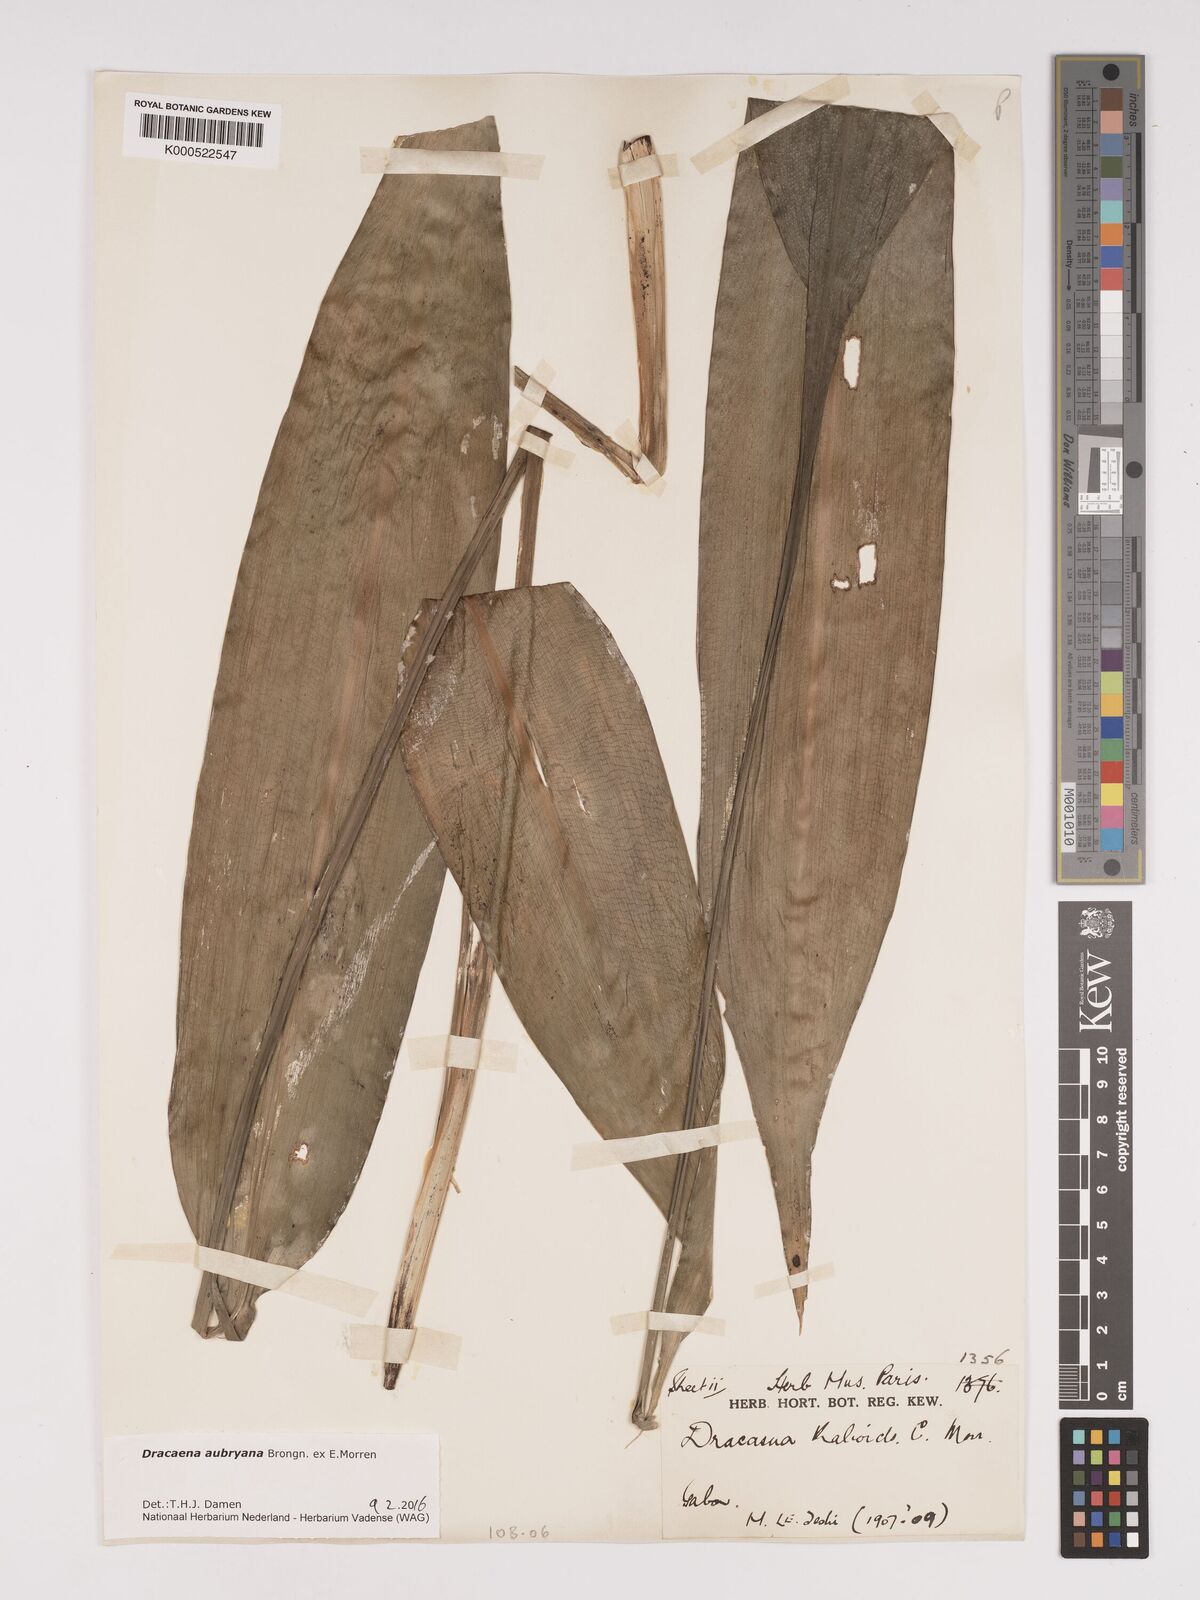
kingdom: Plantae
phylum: Tracheophyta
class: Liliopsida
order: Asparagales
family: Asparagaceae
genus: Dracaena
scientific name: Dracaena aubryana
